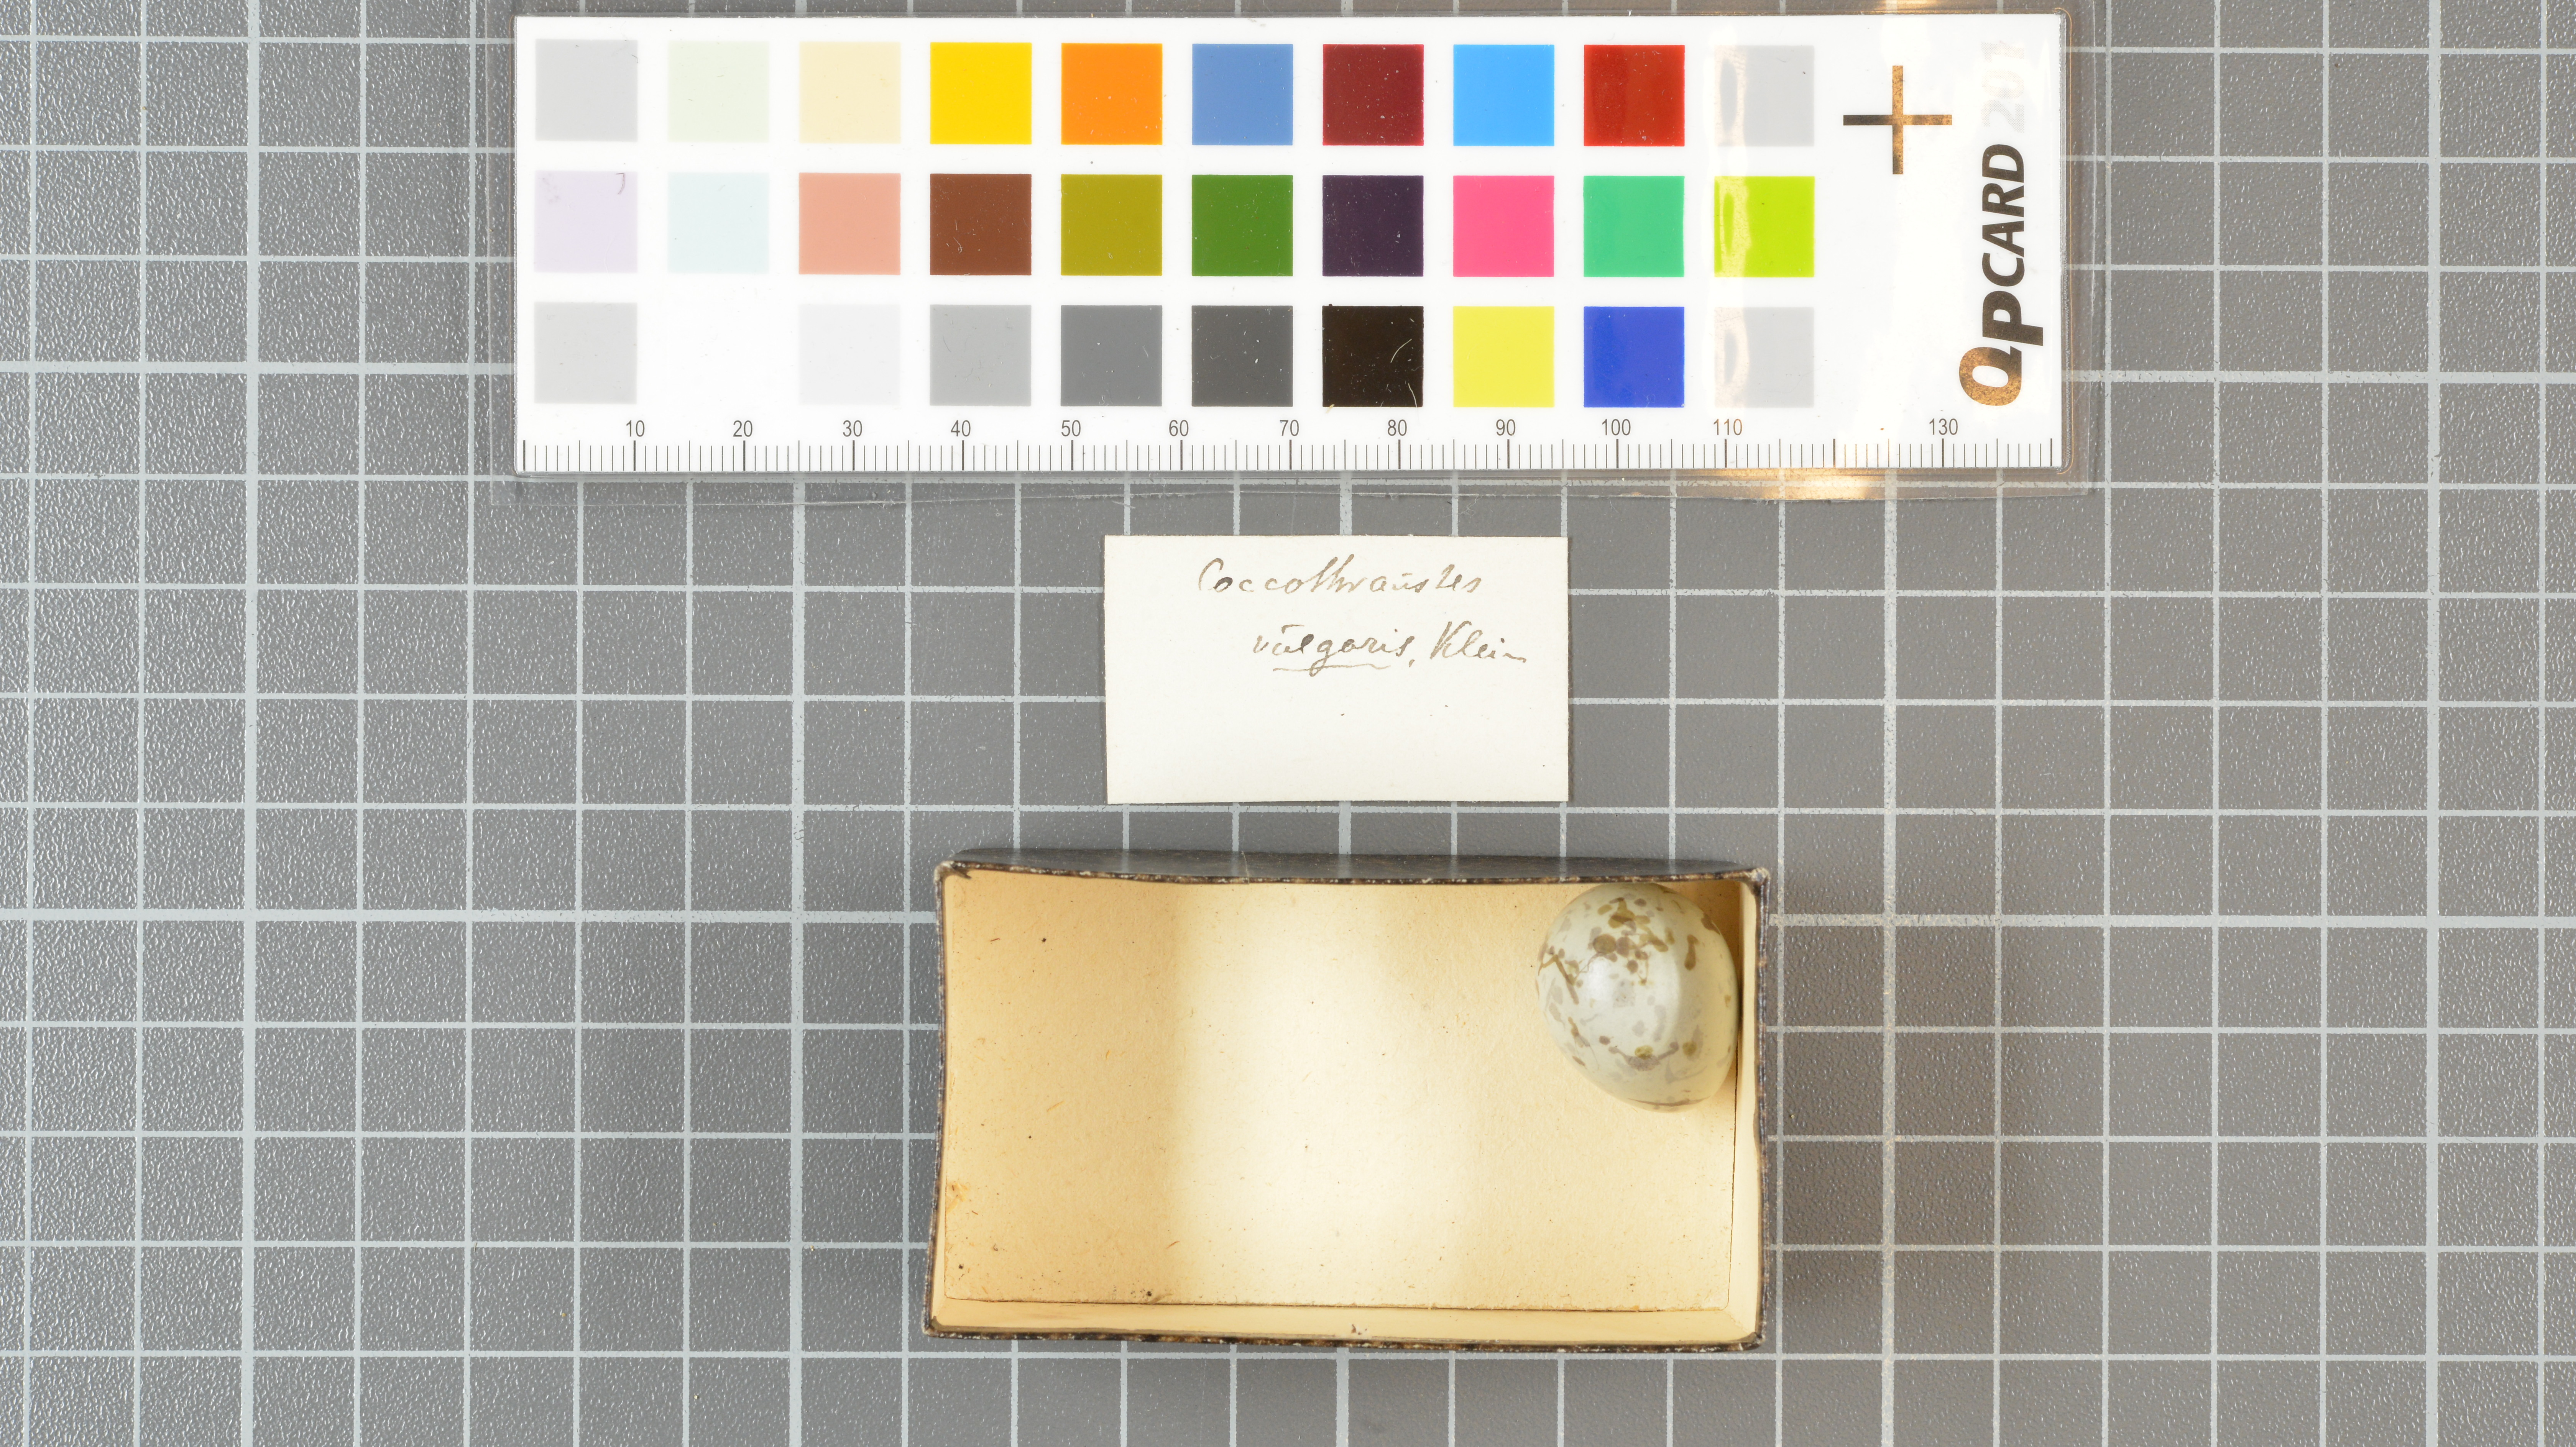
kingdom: Animalia
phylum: Chordata
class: Aves
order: Passeriformes
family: Fringillidae
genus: Coccothraustes
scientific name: Coccothraustes coccothraustes
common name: Hawfinch
